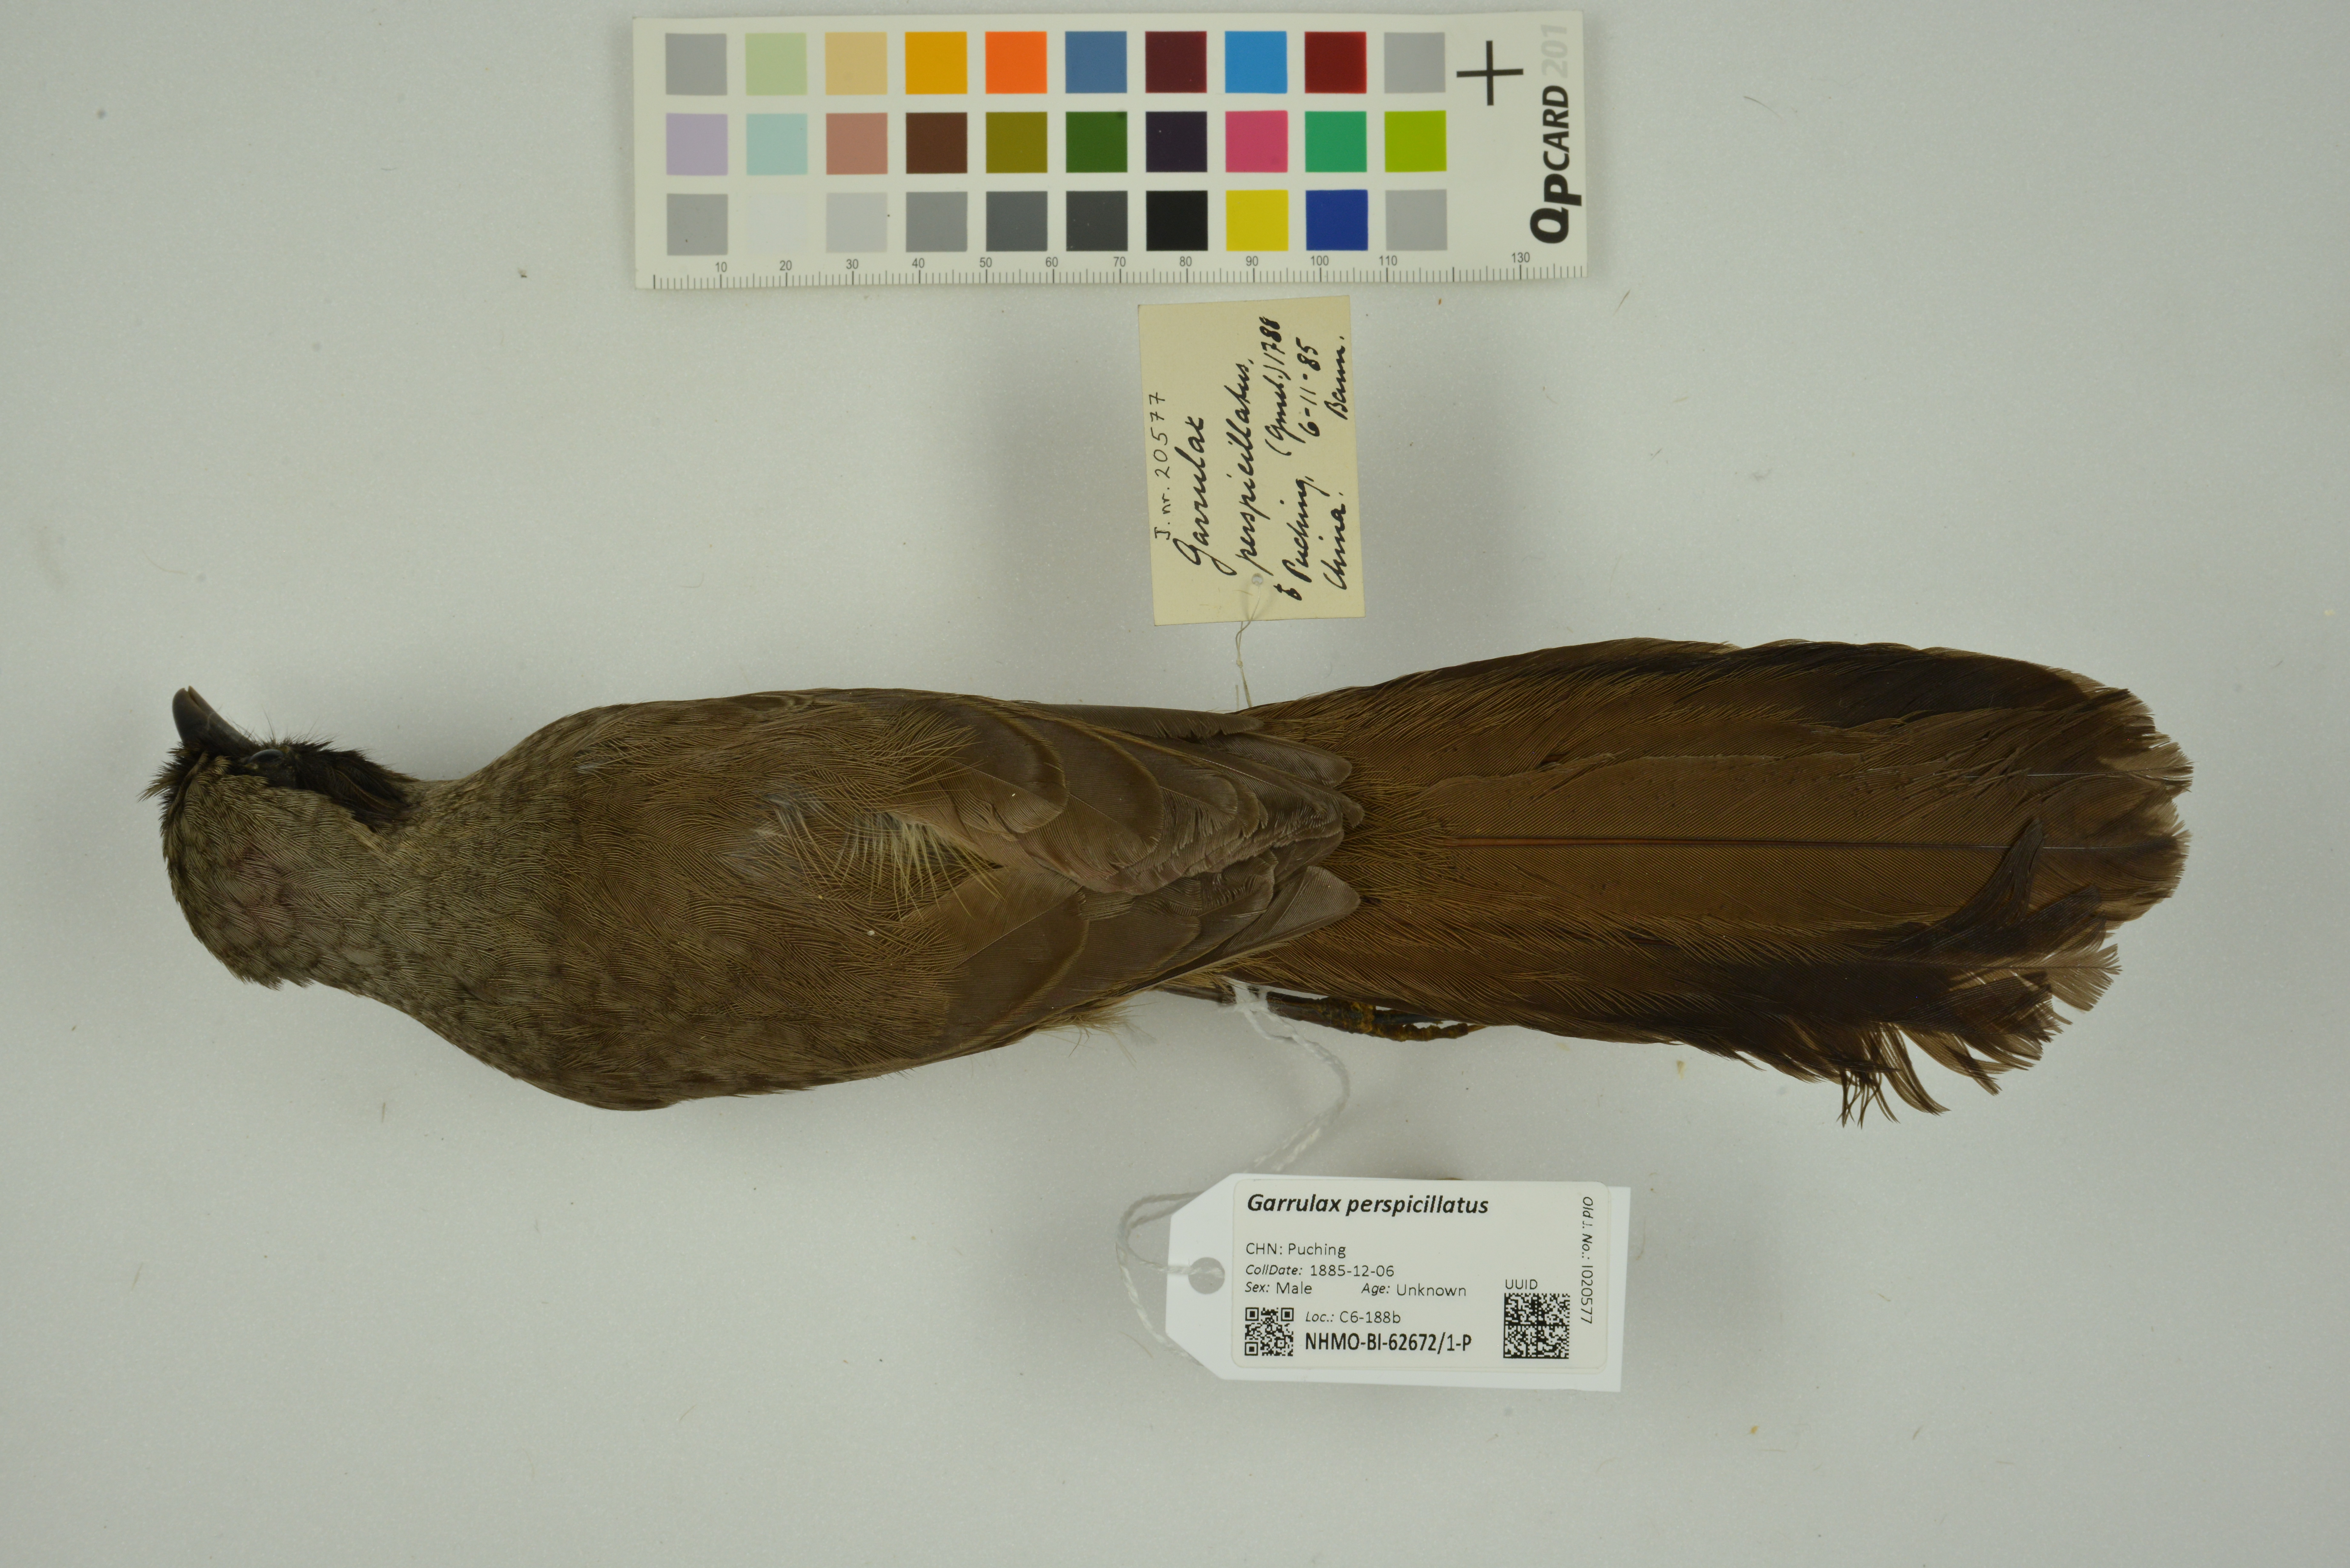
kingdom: Animalia
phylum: Chordata
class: Aves
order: Passeriformes
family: Leiothrichidae
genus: Garrulax
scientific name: Garrulax perspicillatus
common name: Masked laughingthrush
